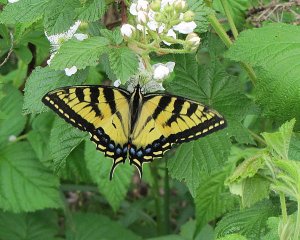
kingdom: Animalia
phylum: Arthropoda
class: Insecta
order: Lepidoptera
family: Papilionidae
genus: Pterourus
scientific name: Pterourus canadensis
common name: Canadian Tiger Swallowtail
